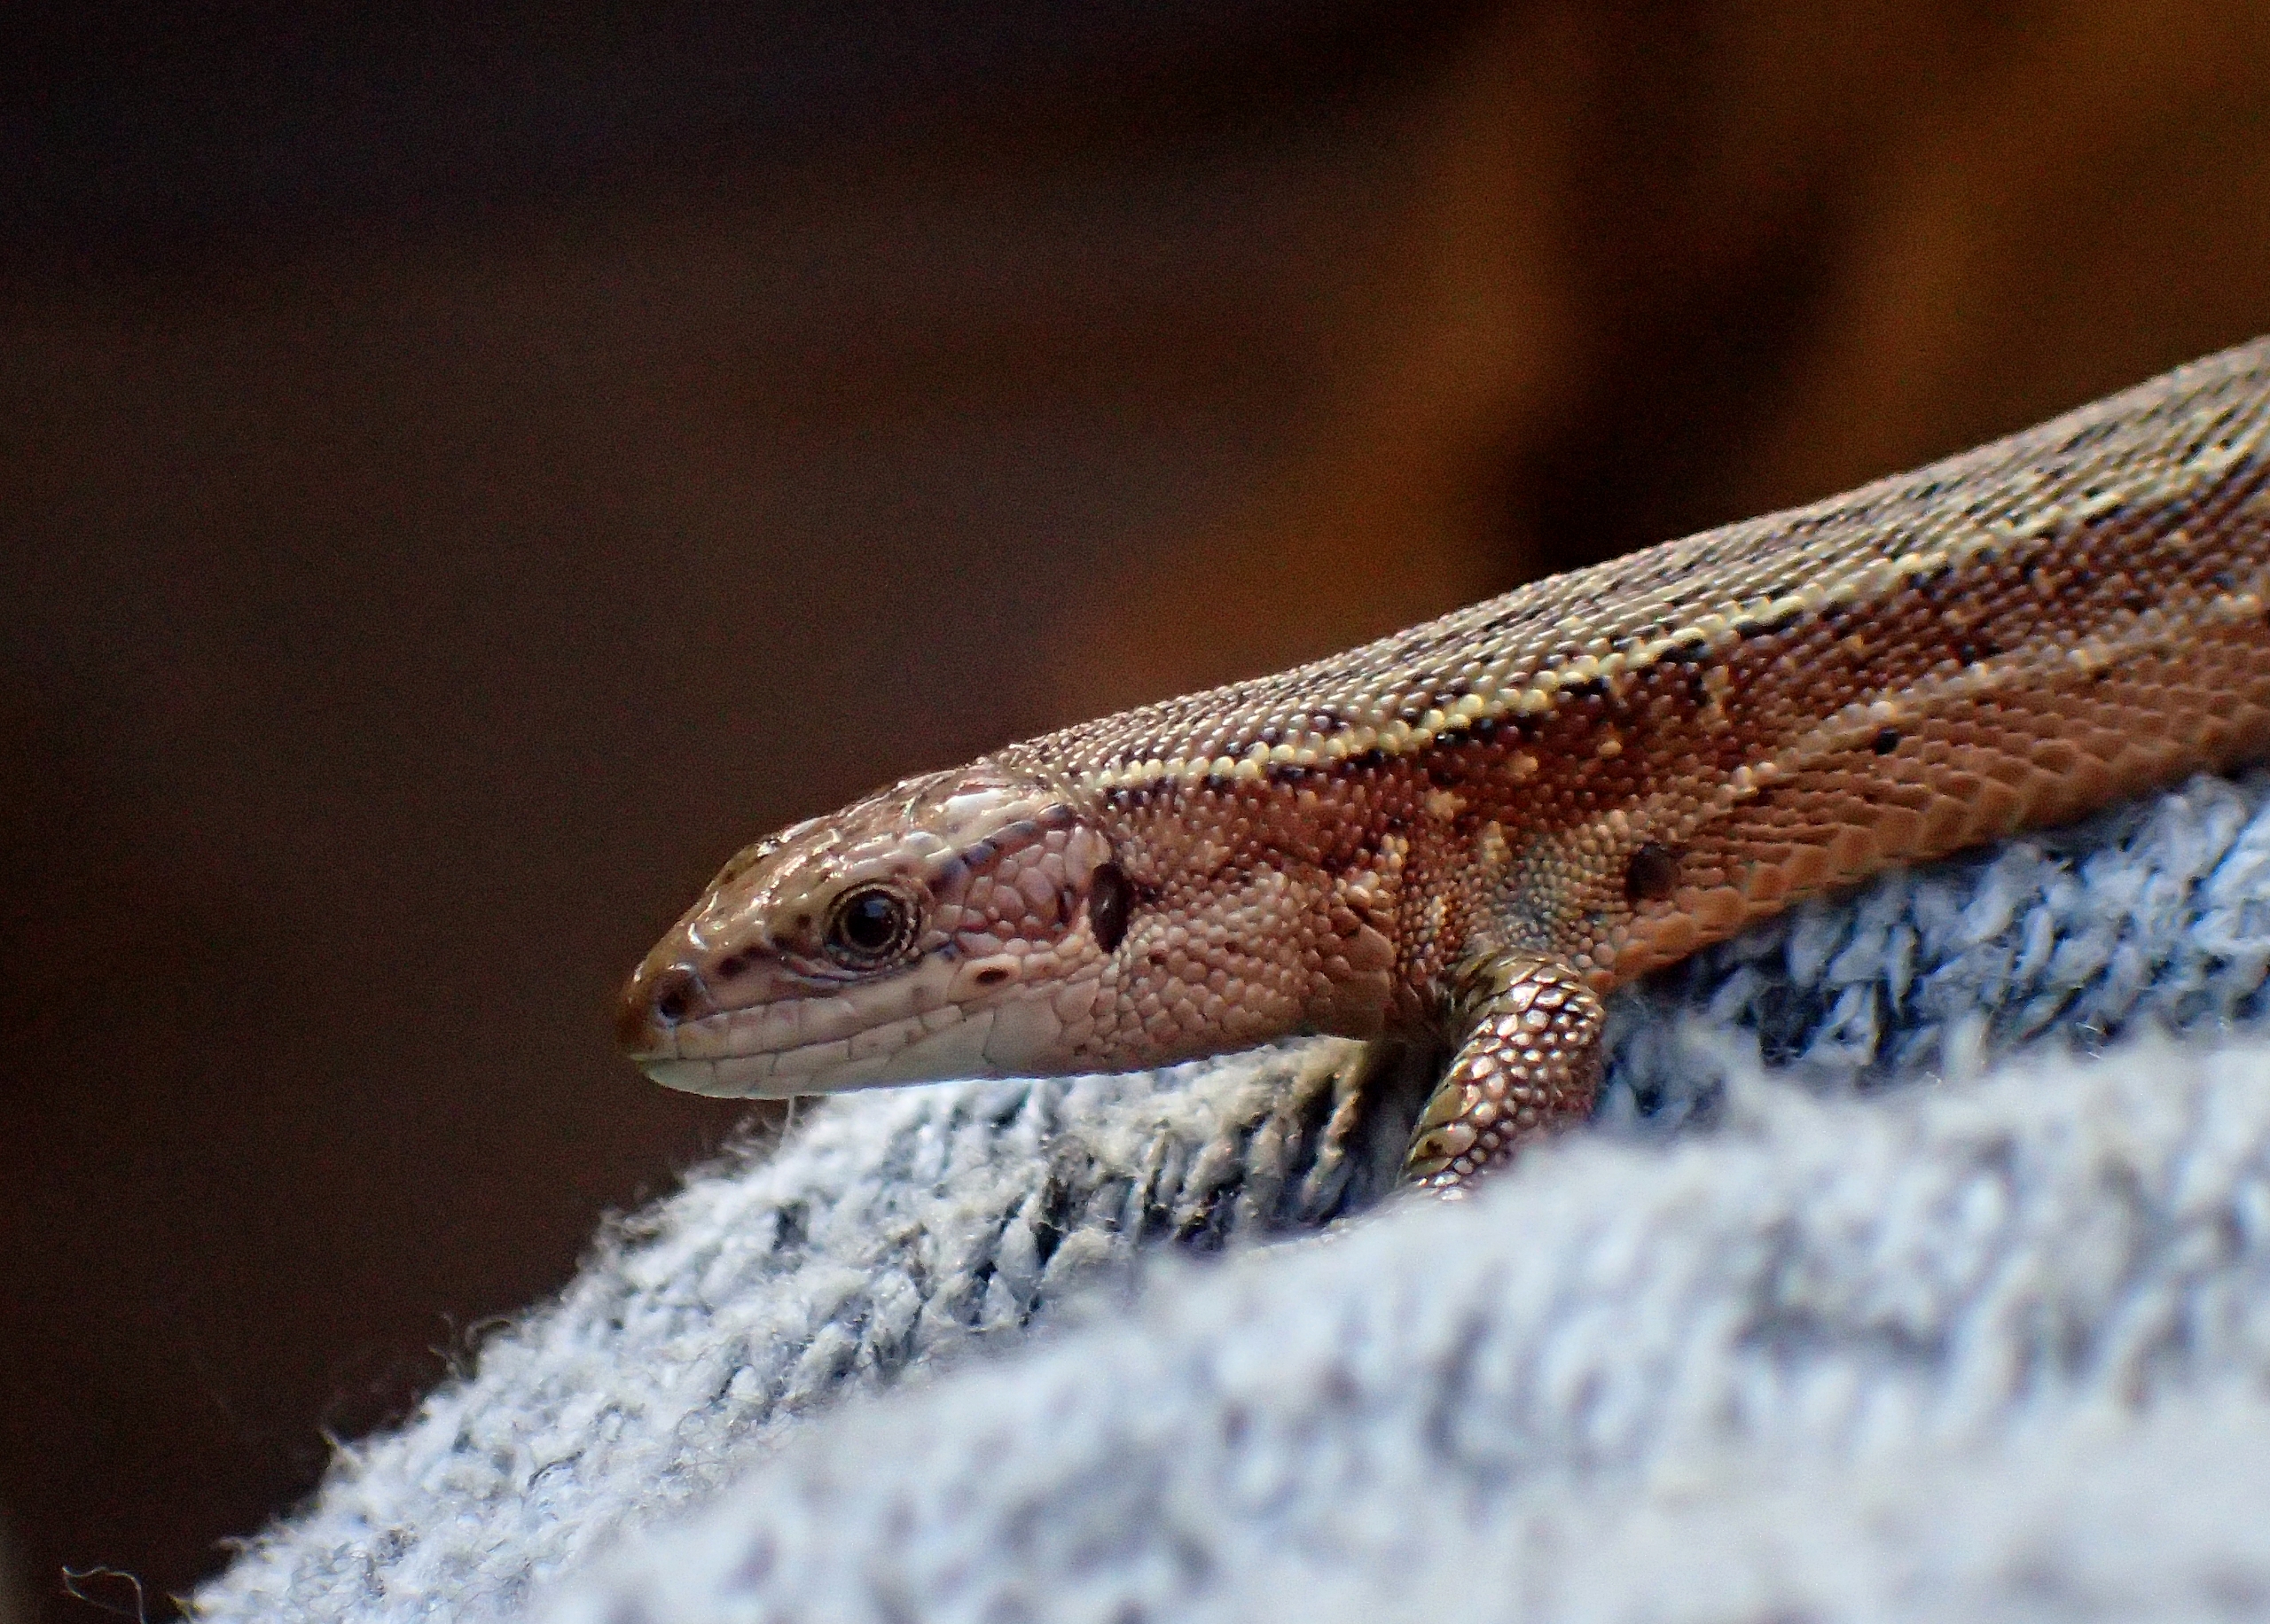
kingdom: Animalia
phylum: Chordata
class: Squamata
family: Lacertidae
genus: Zootoca
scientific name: Zootoca vivipara
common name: Skovfirben
